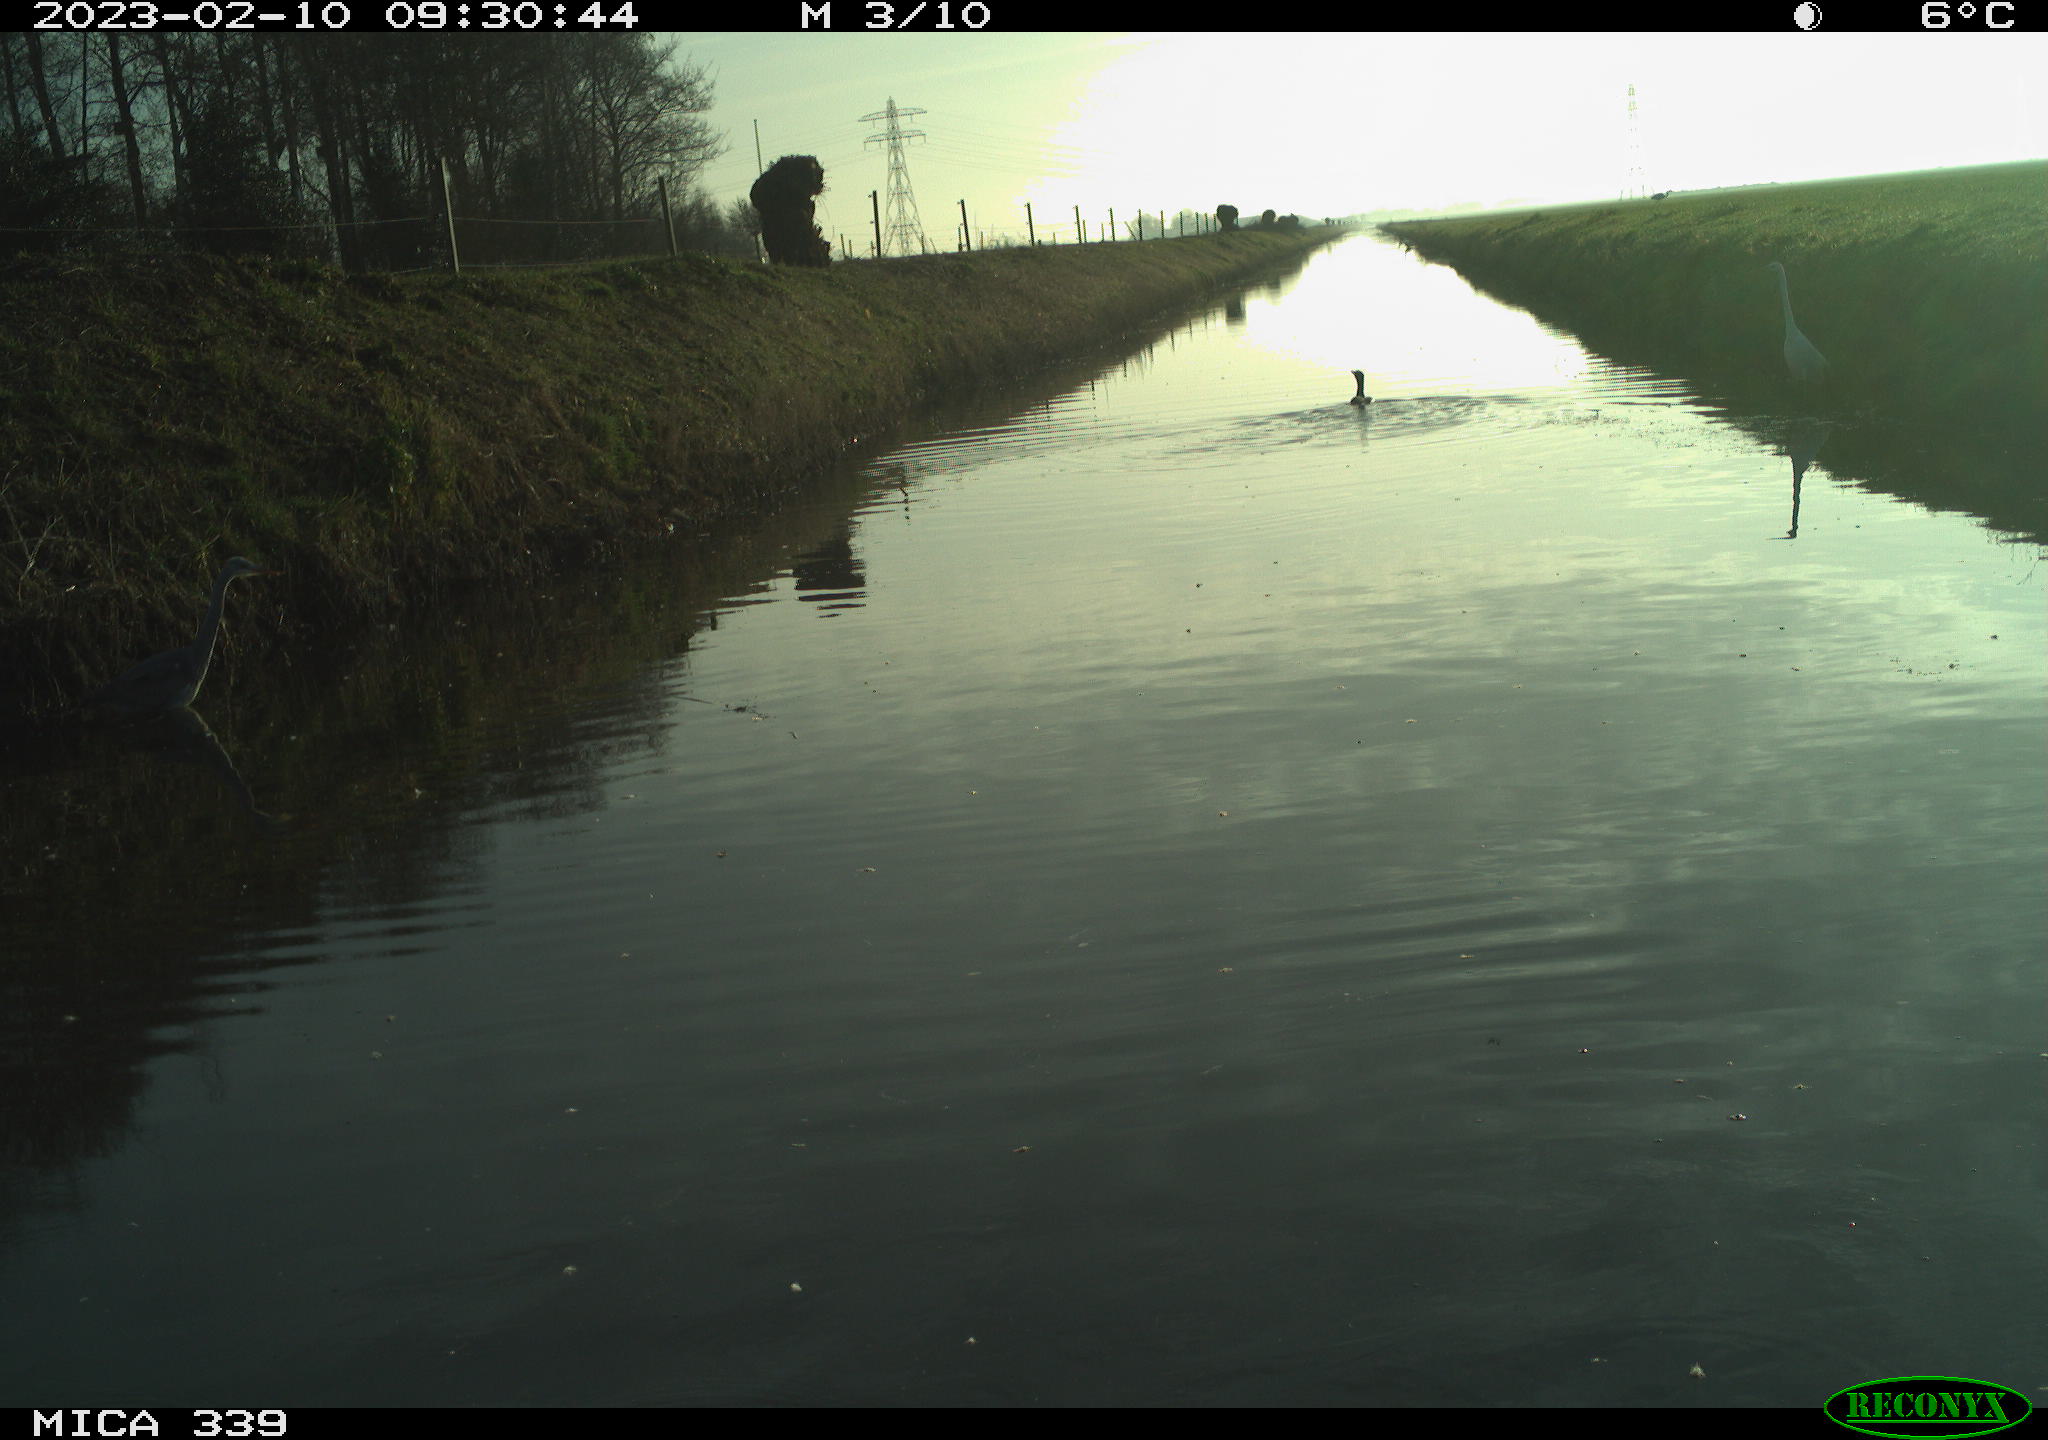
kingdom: Animalia
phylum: Chordata
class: Aves
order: Suliformes
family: Phalacrocoracidae
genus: Phalacrocorax
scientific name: Phalacrocorax carbo
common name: Great cormorant
